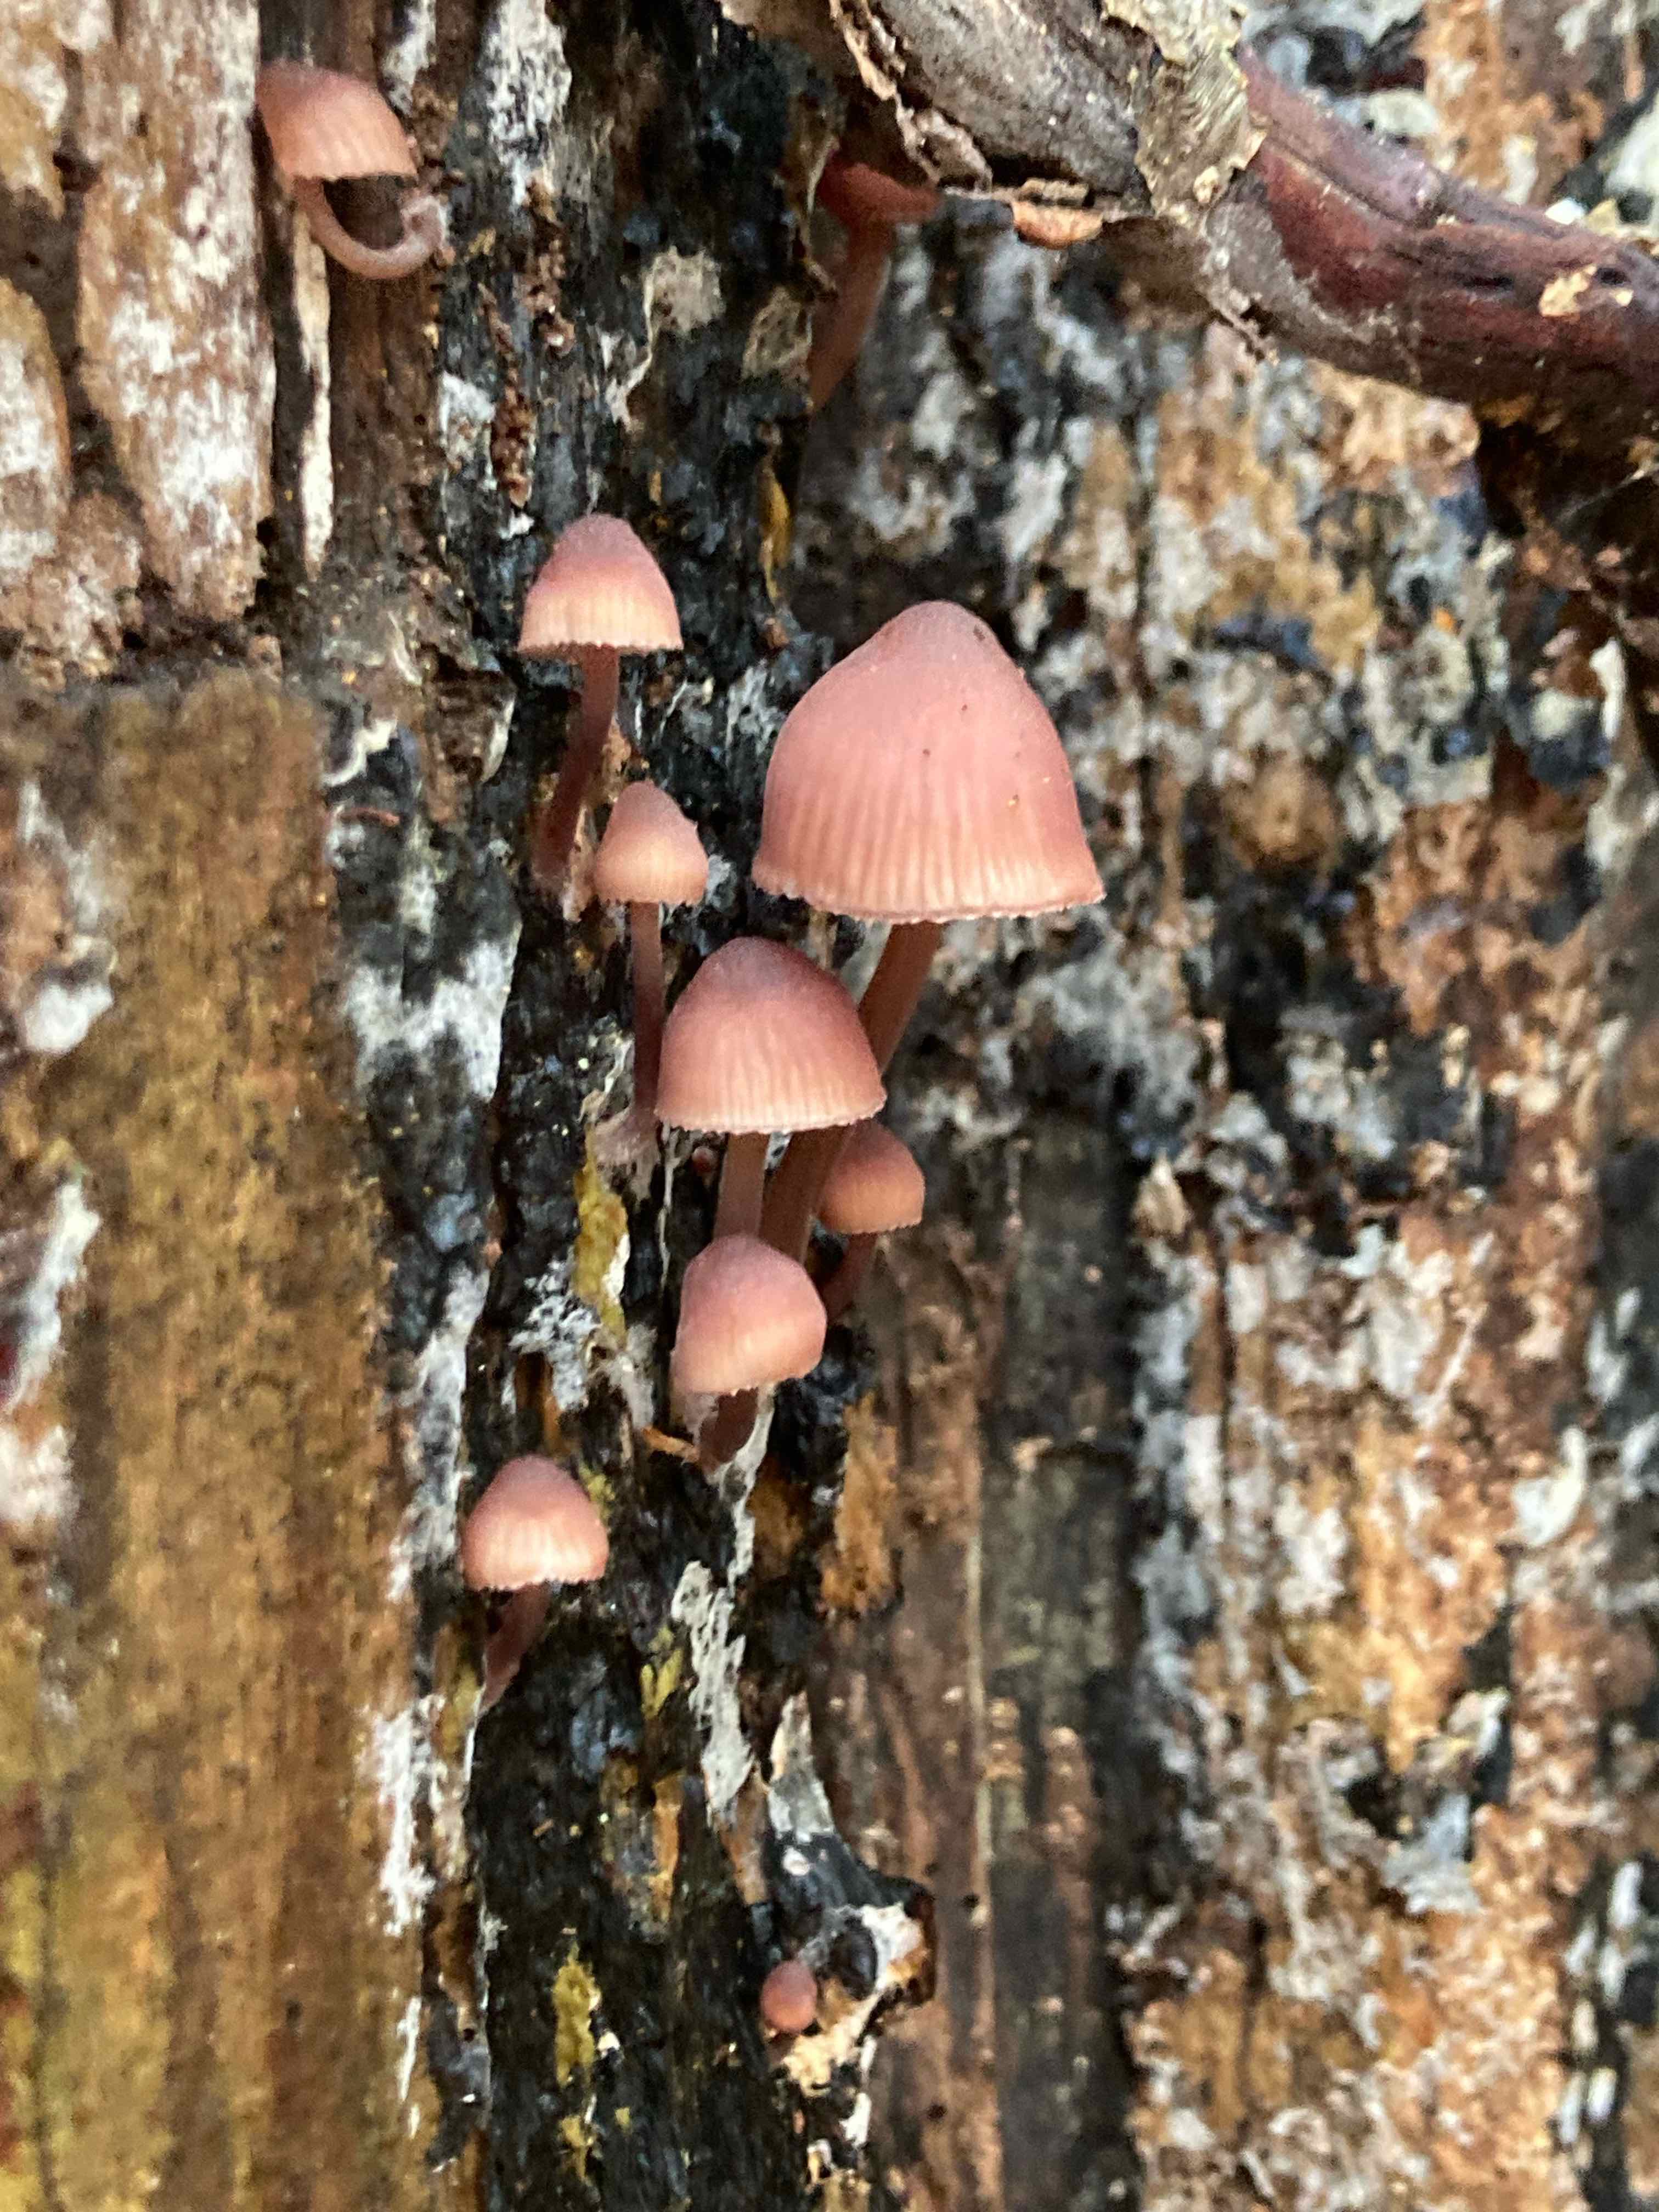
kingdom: Fungi
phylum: Basidiomycota
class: Agaricomycetes
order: Agaricales
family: Mycenaceae
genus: Mycena
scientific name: Mycena haematopus
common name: blødende huesvamp
